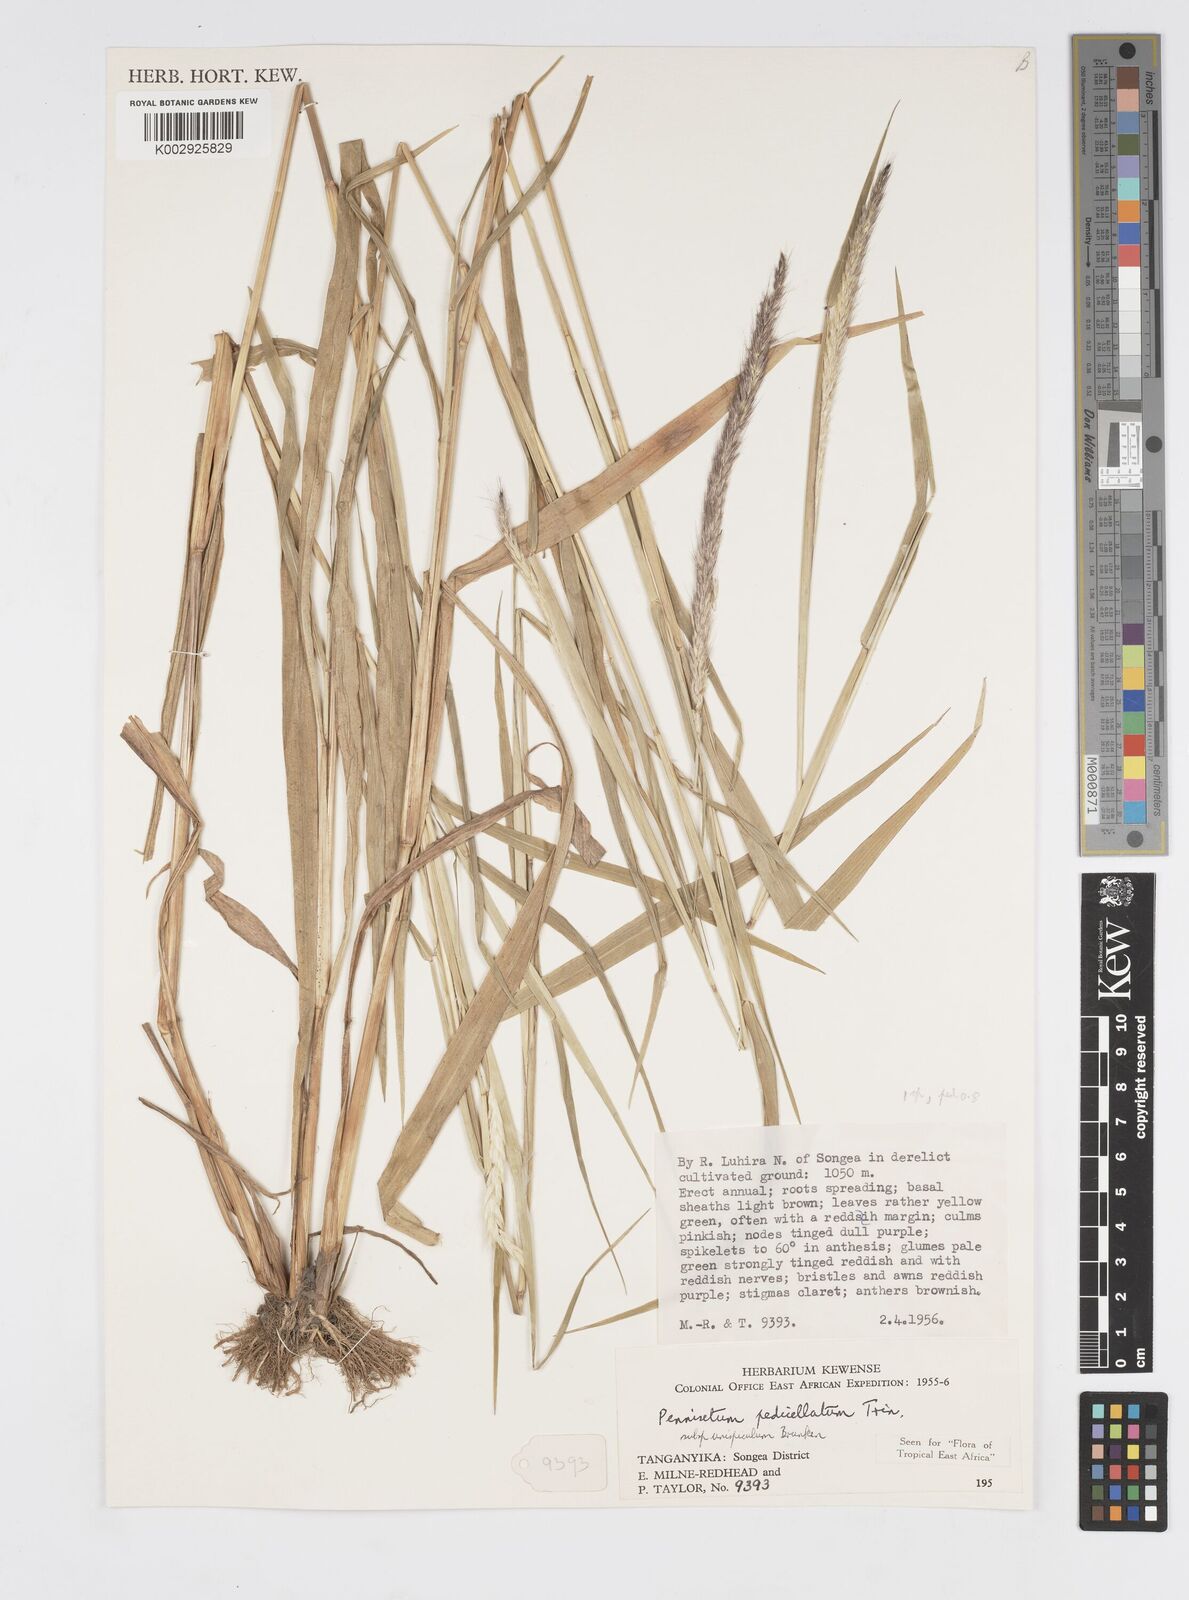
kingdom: Plantae
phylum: Tracheophyta
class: Liliopsida
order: Poales
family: Poaceae
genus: Cenchrus
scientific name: Cenchrus pedicellatus
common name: Hairy fountain grass
